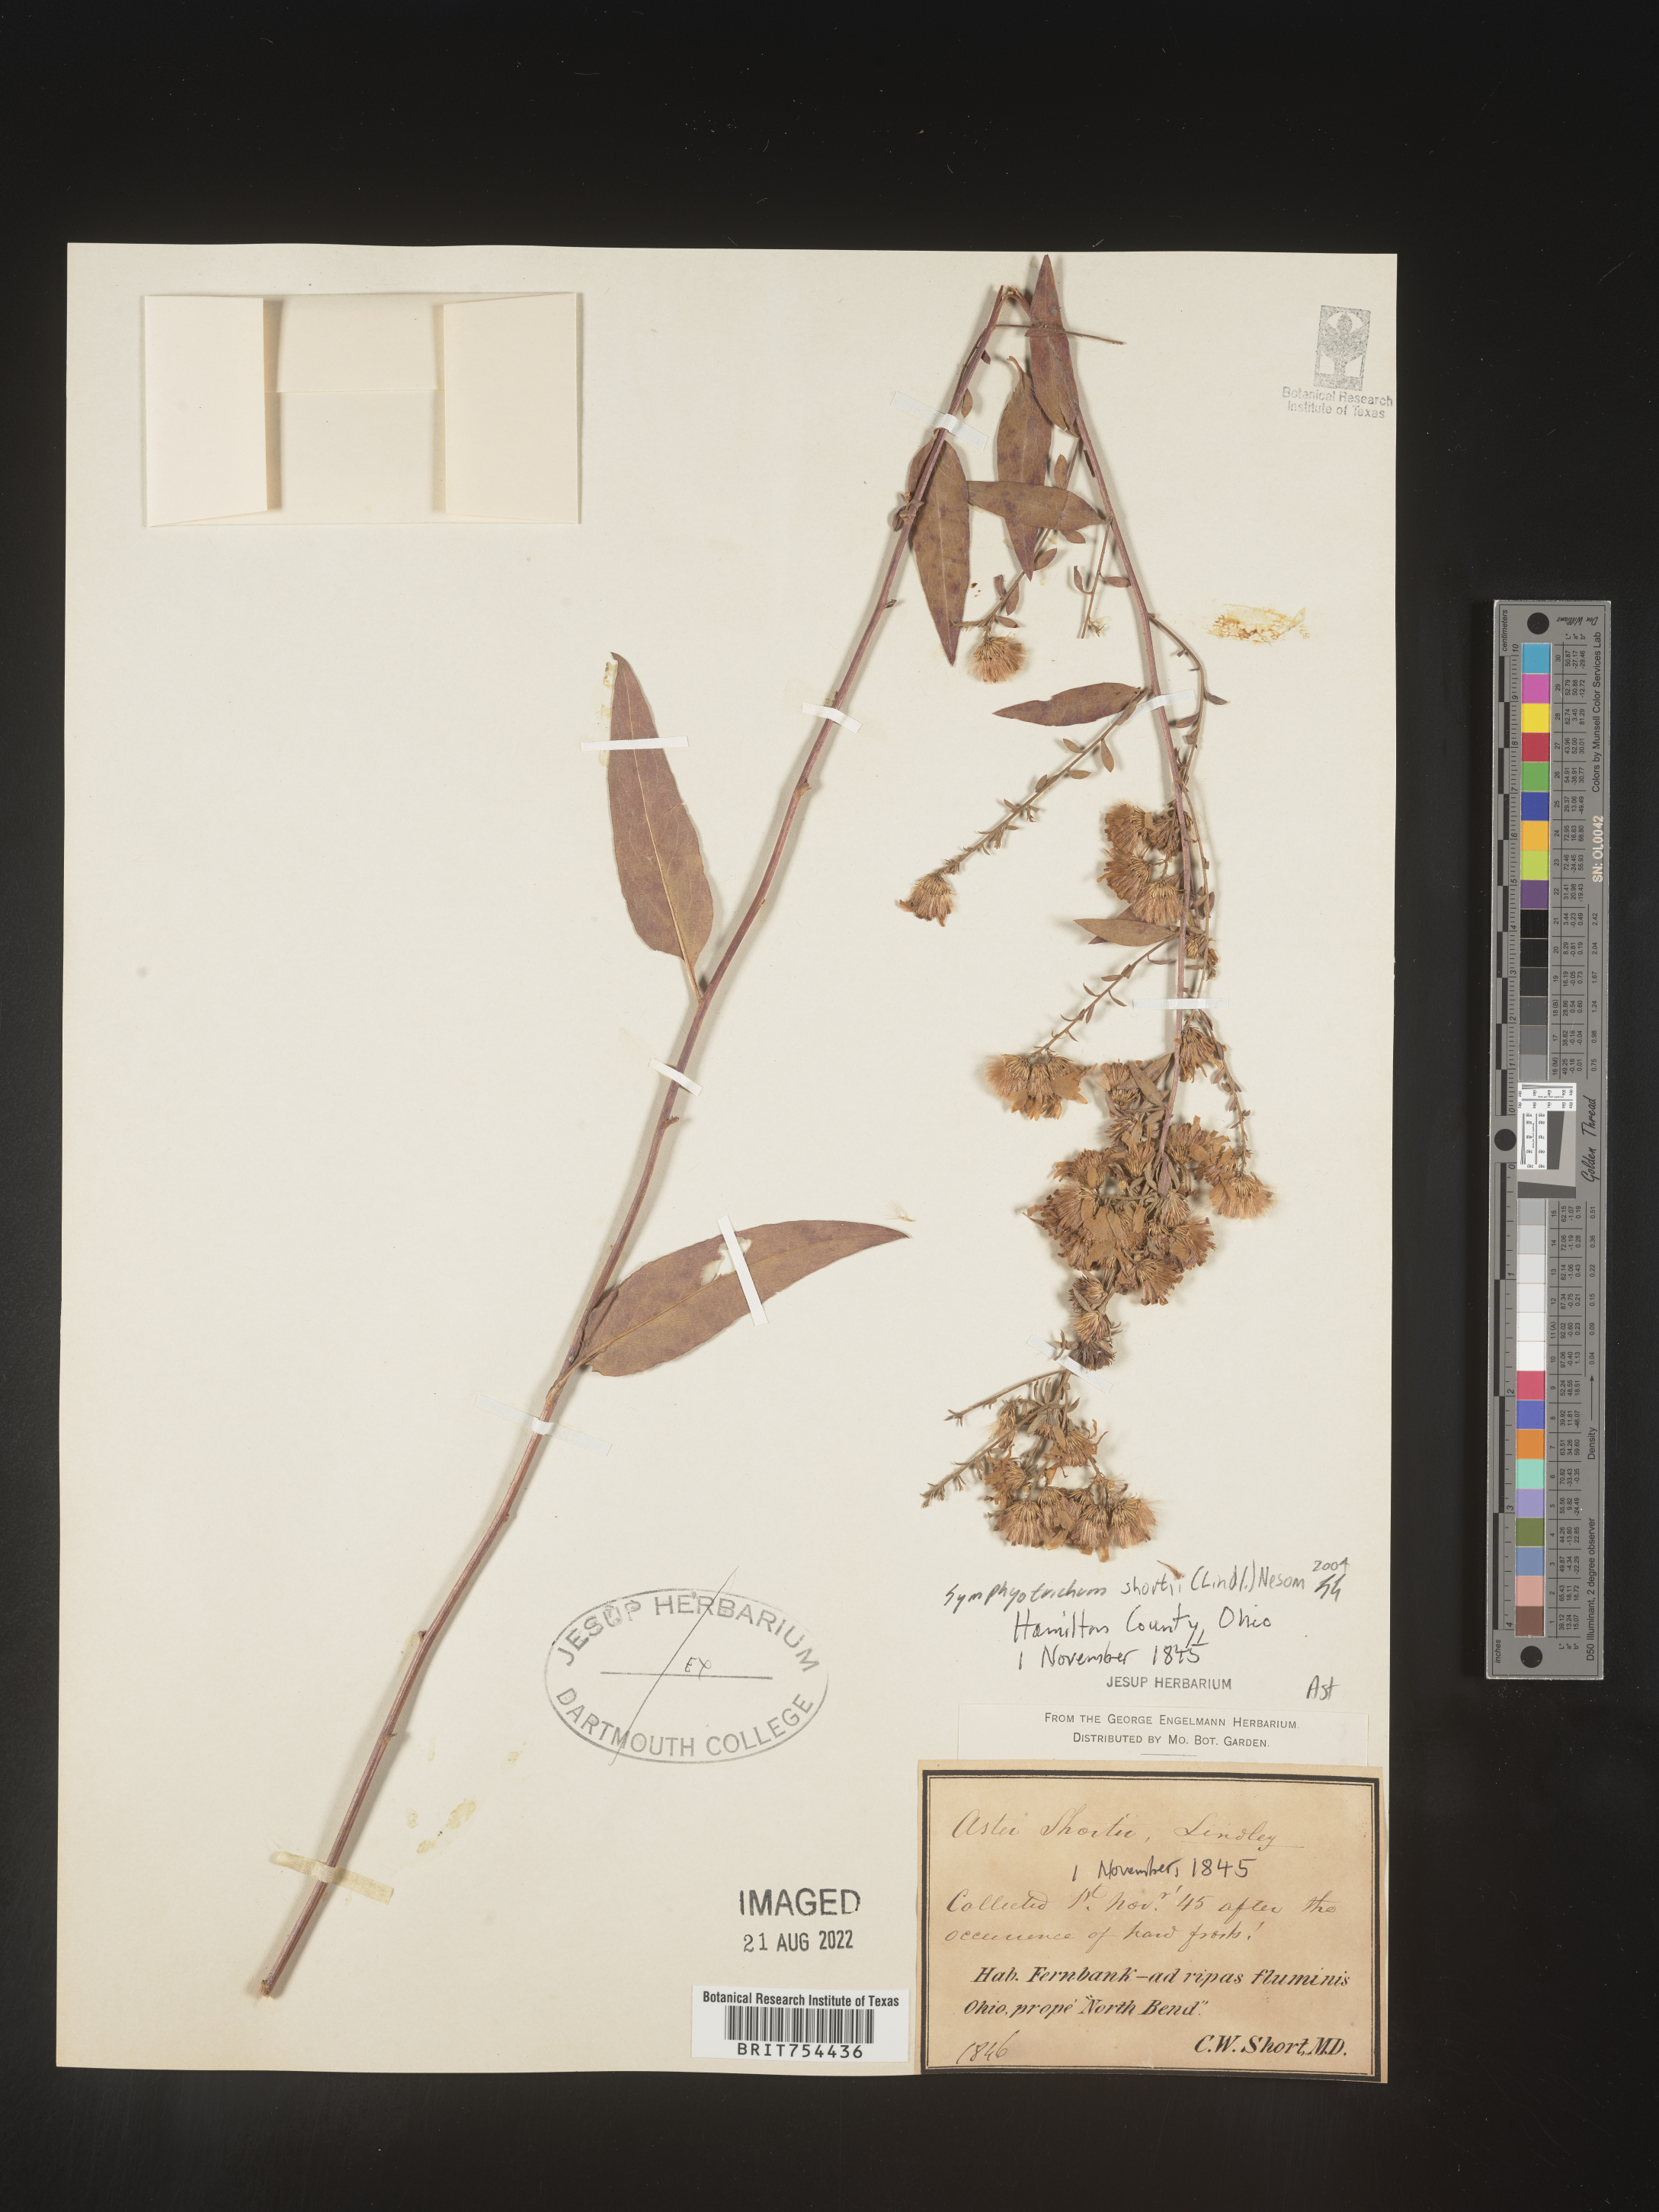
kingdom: Plantae
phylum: Tracheophyta
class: Magnoliopsida
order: Asterales
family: Asteraceae
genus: Symphyotrichum
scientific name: Symphyotrichum shortii
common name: Short's aster
